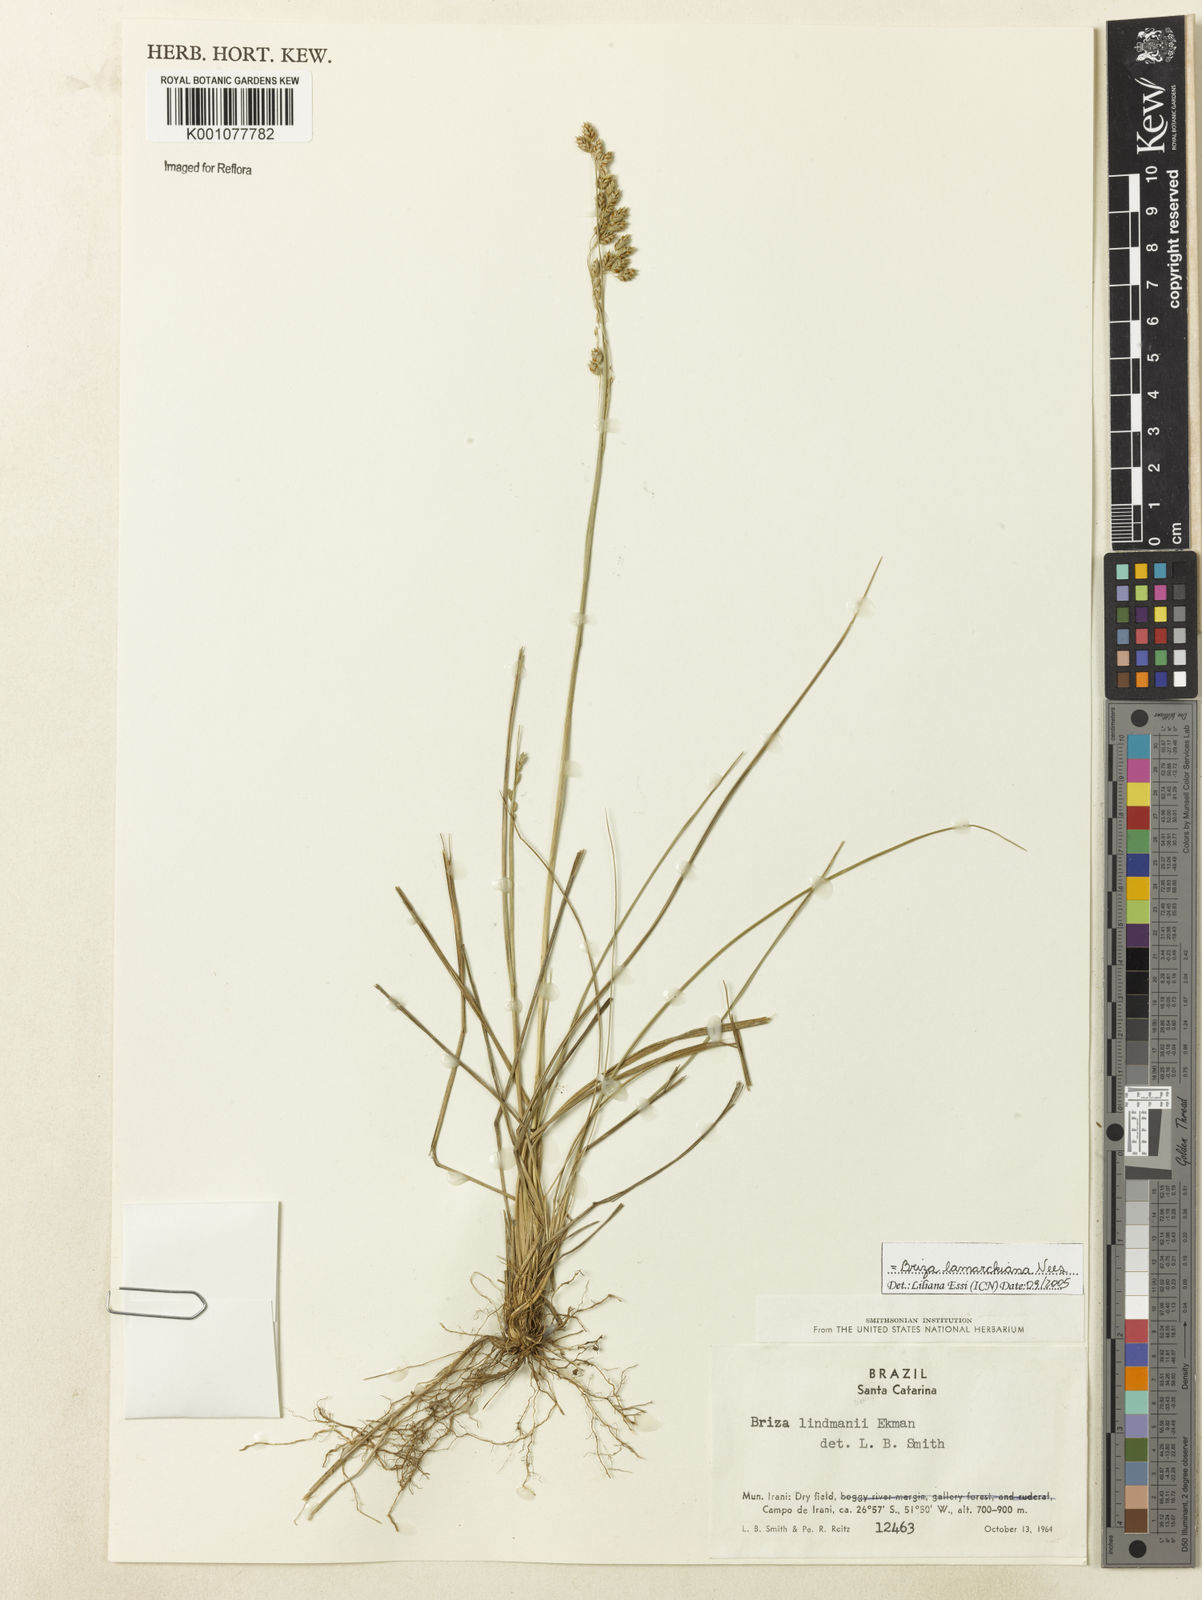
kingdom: Plantae
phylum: Tracheophyta
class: Liliopsida
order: Poales
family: Poaceae
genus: Chascolytrum
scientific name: Chascolytrum lamarckianum
